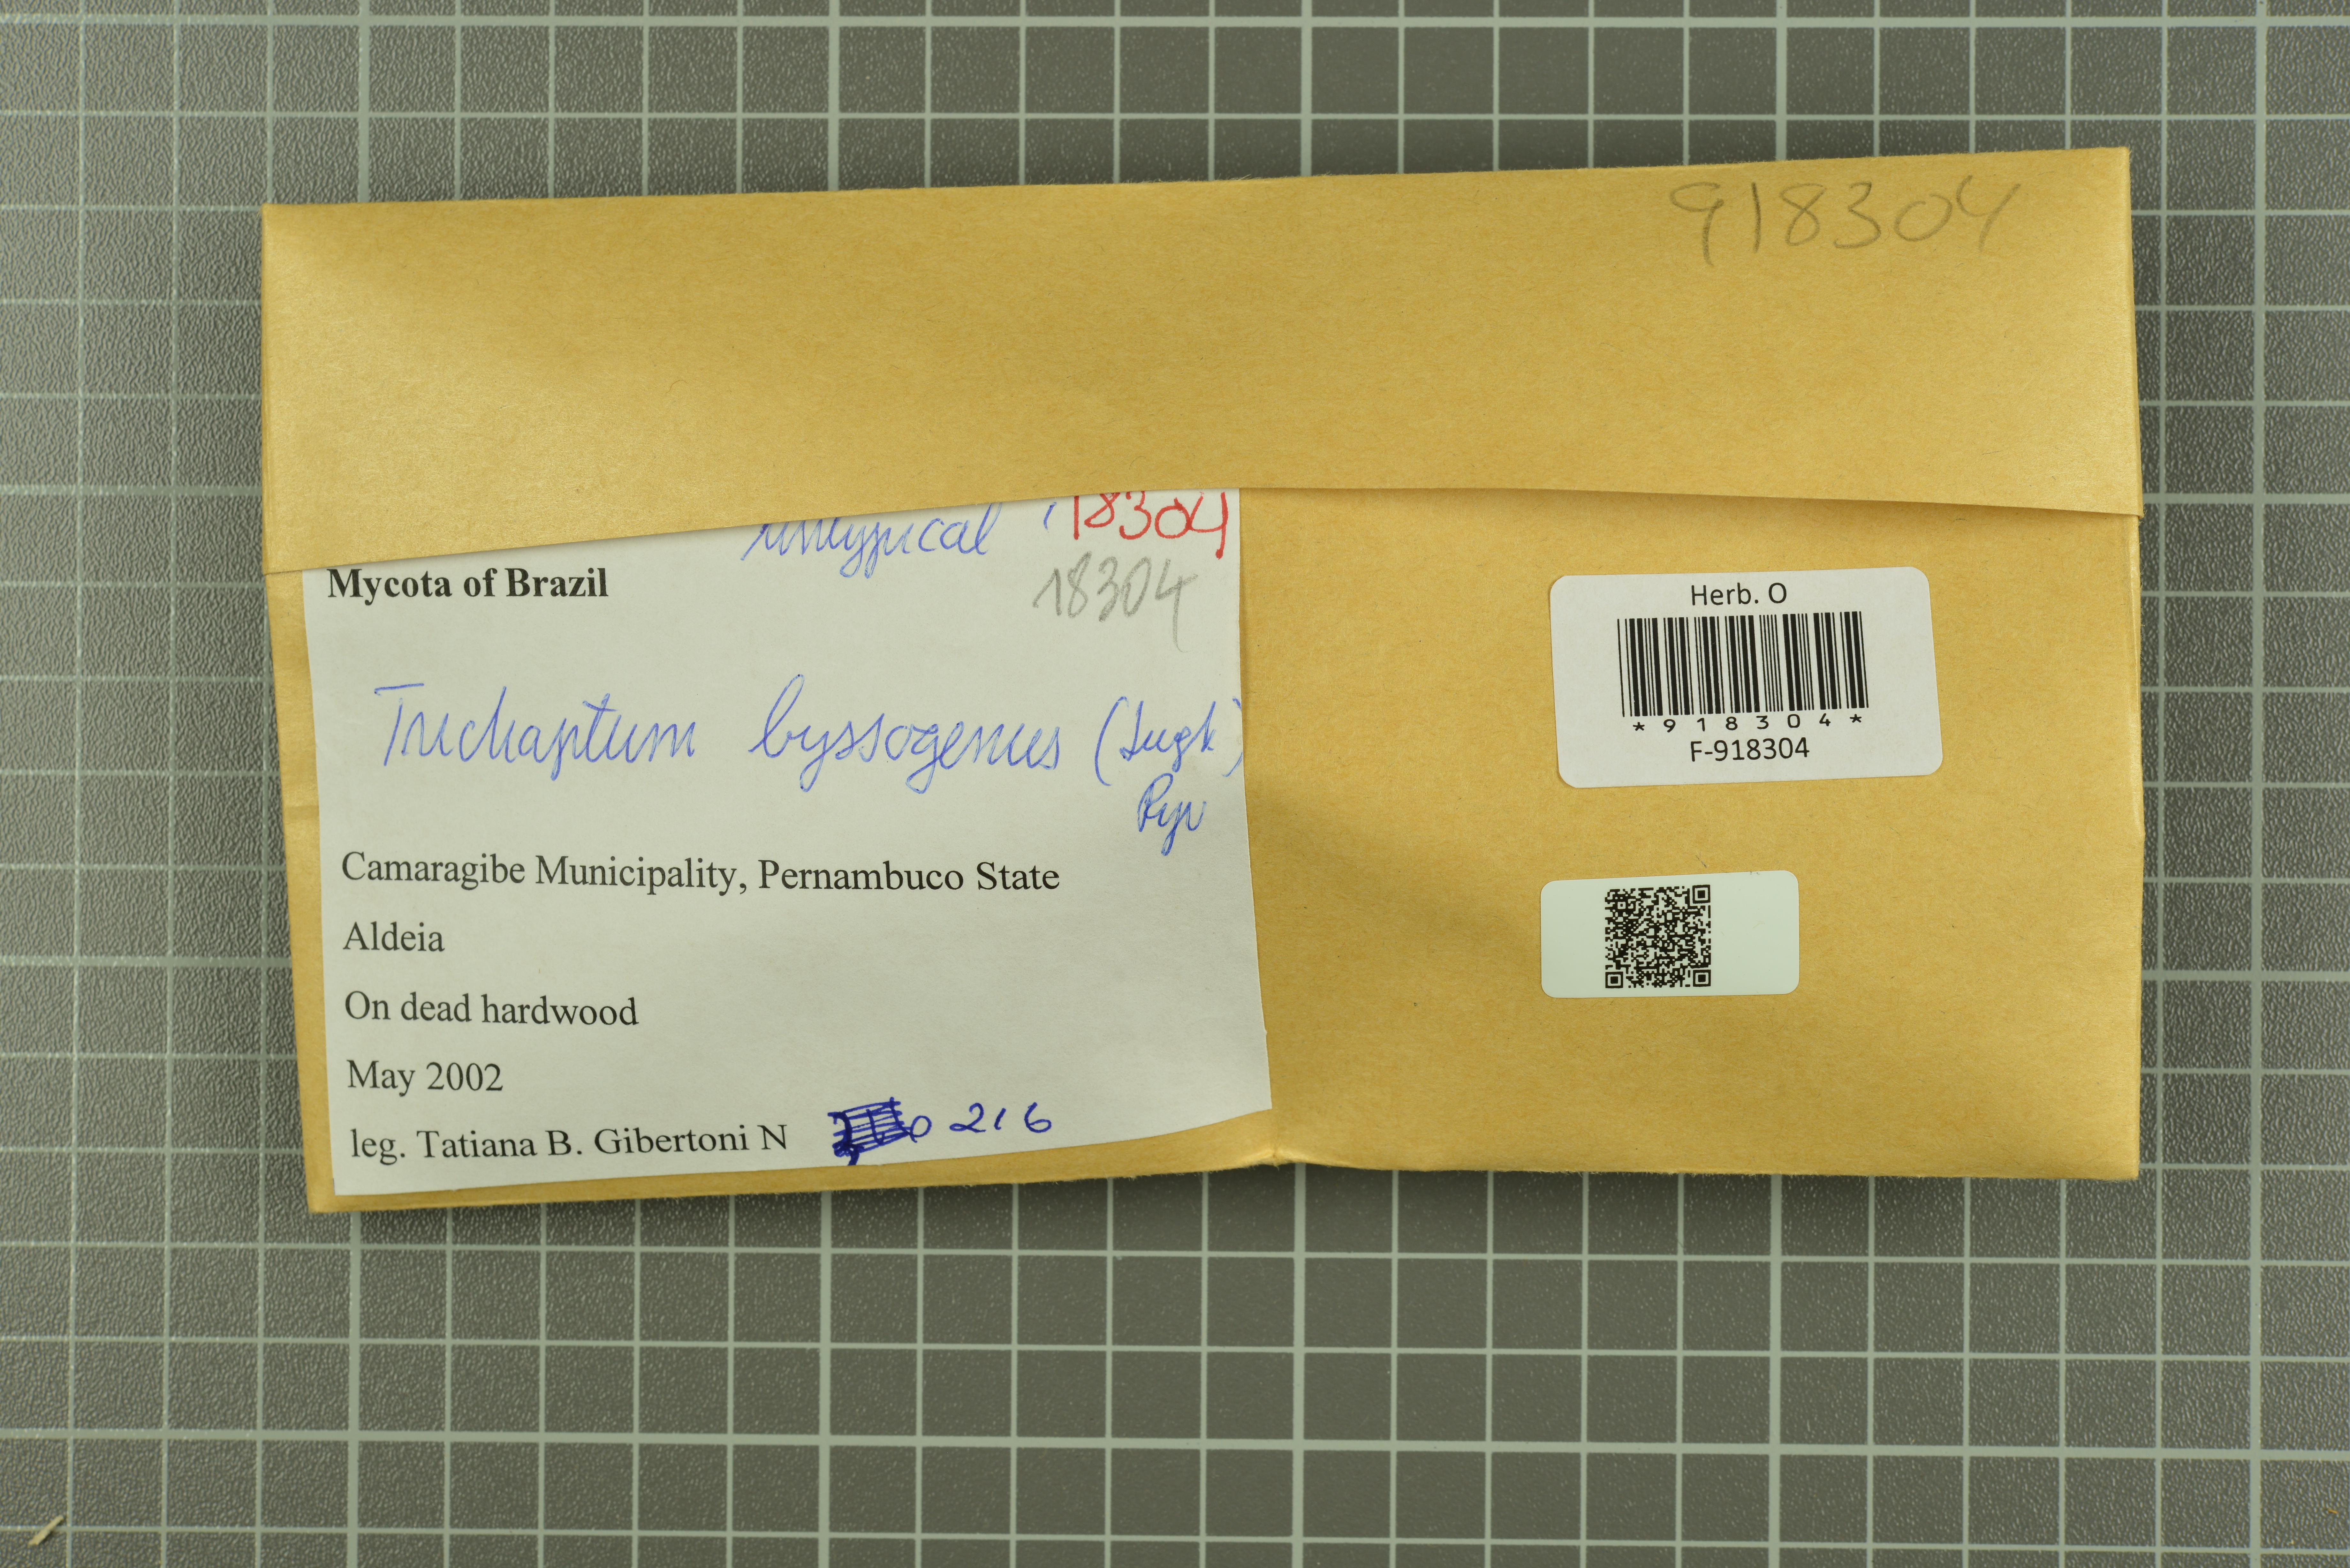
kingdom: Fungi
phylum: Basidiomycota
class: Agaricomycetes
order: Hymenochaetales
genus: Trichaptum
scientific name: Trichaptum byssogenum
